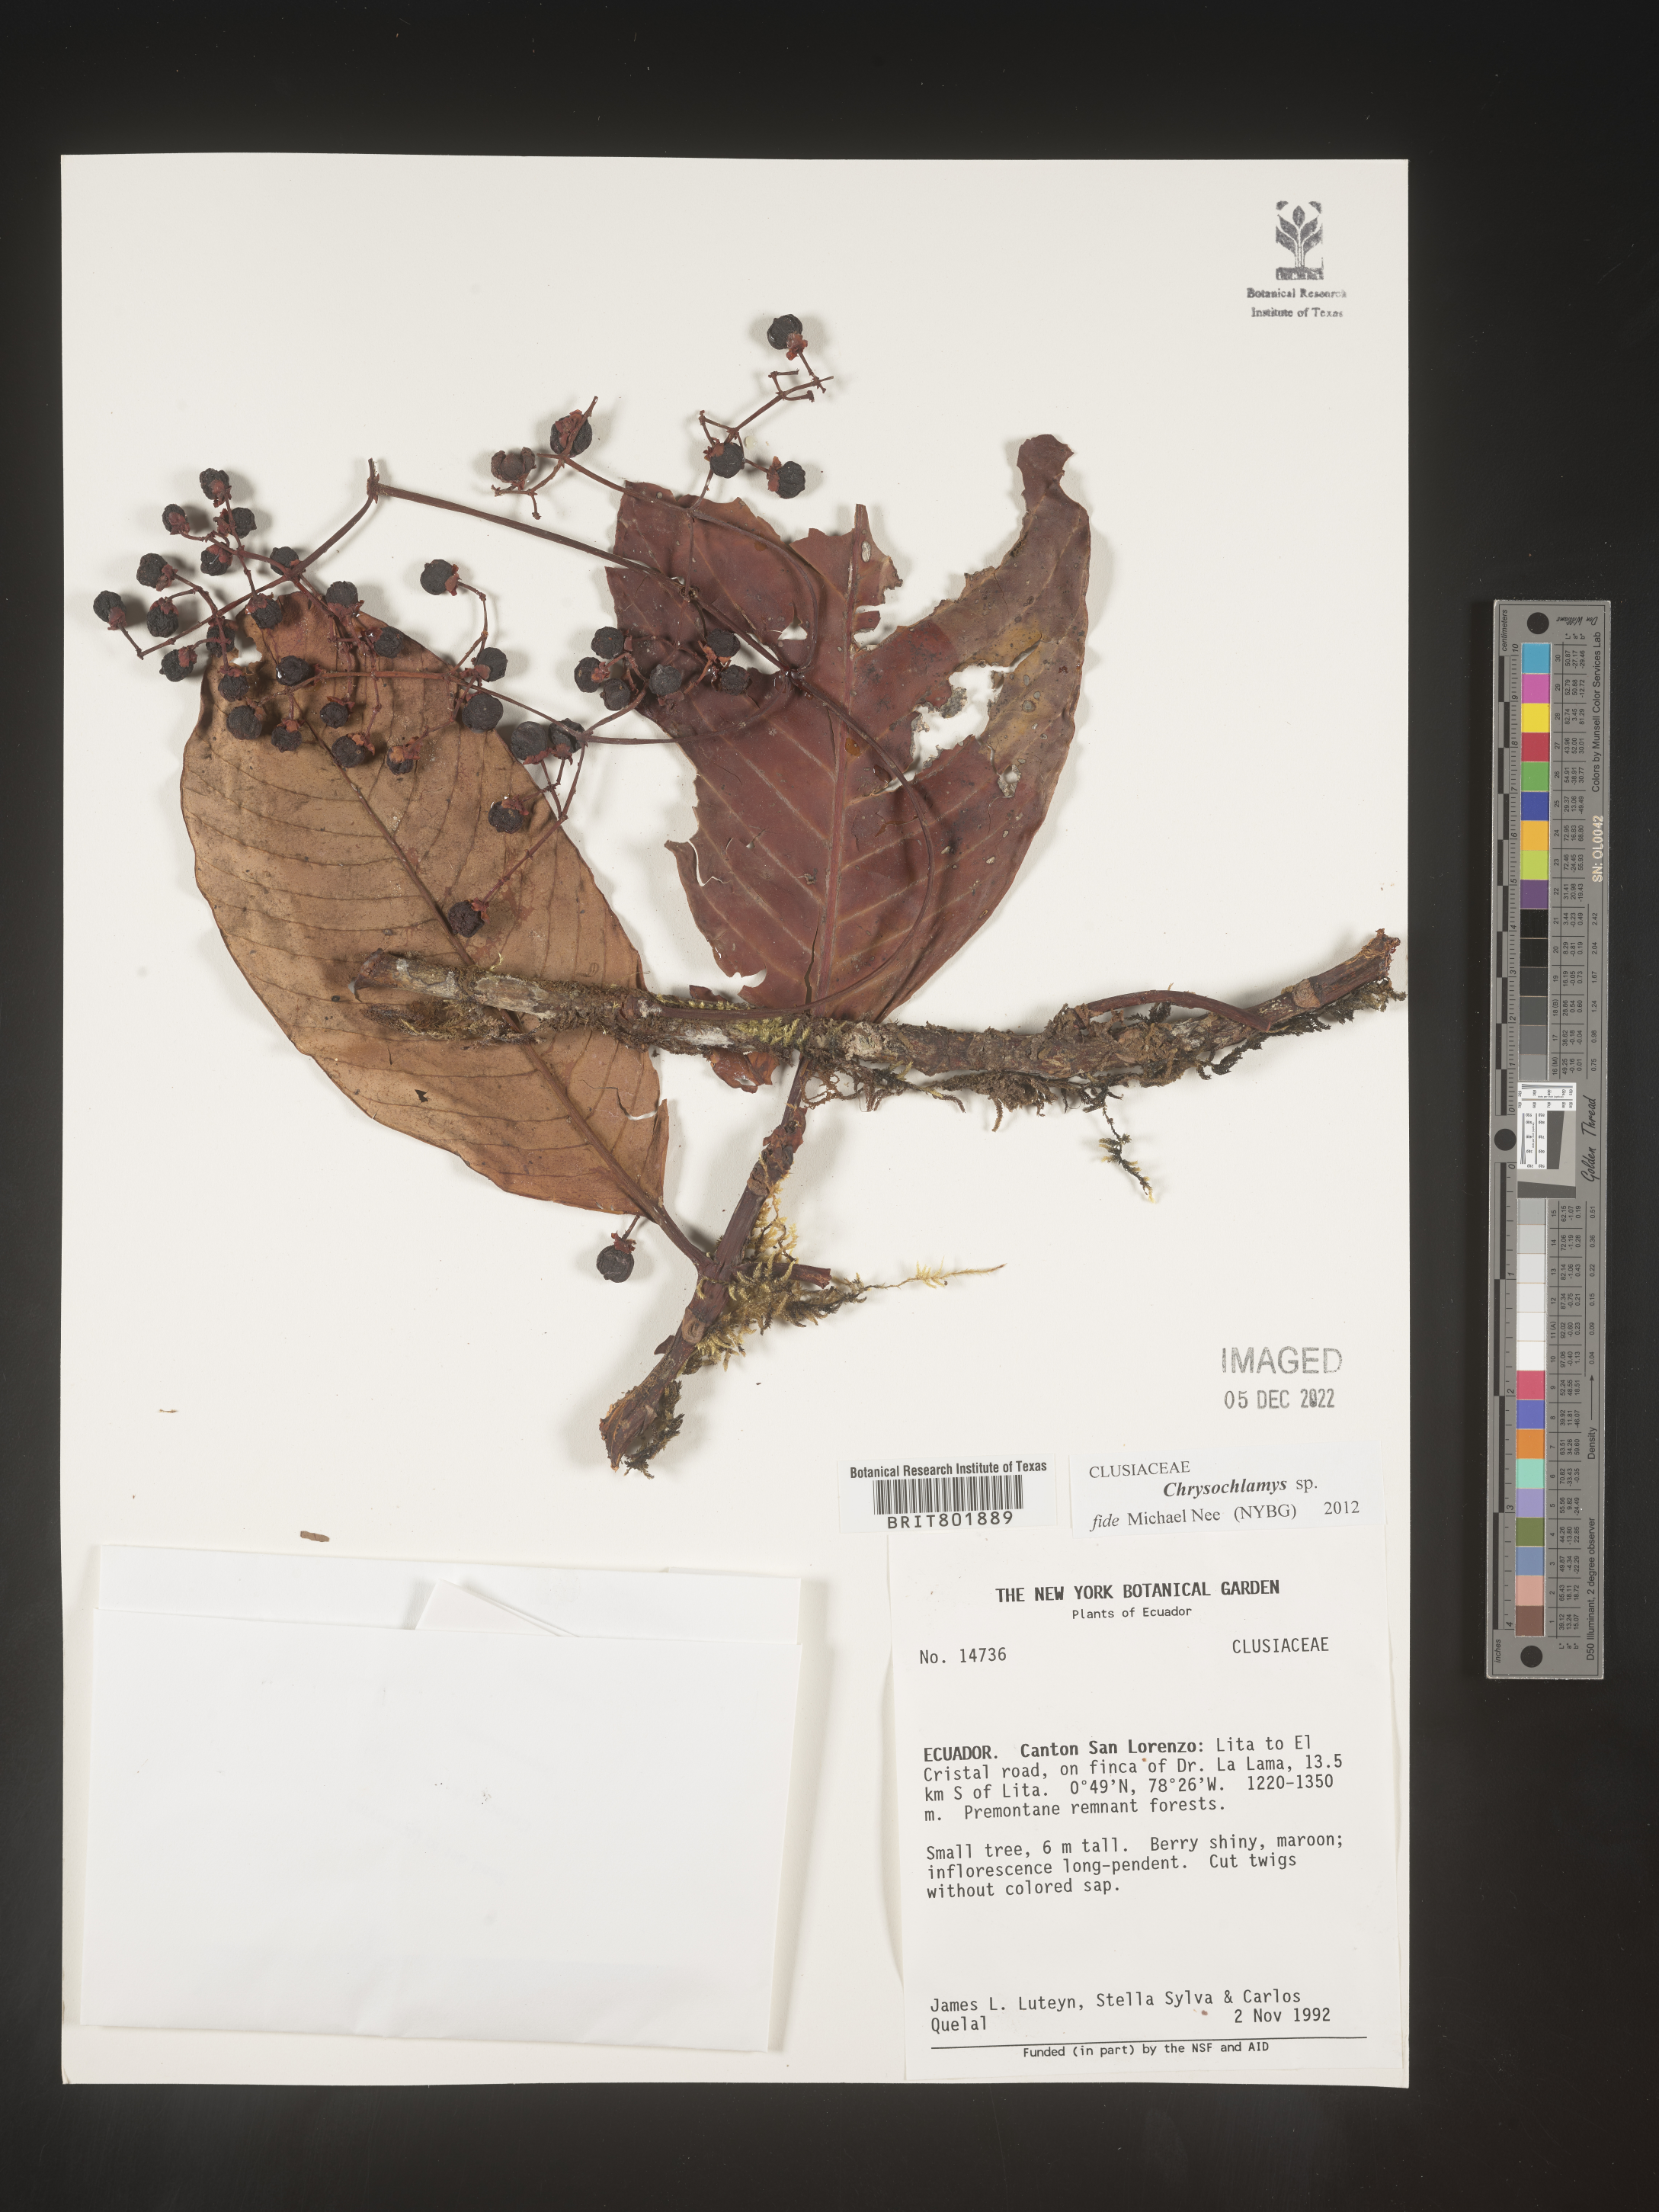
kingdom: Plantae
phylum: Tracheophyta
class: Magnoliopsida
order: Malpighiales
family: Clusiaceae
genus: Chrysochlamys
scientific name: Chrysochlamys
